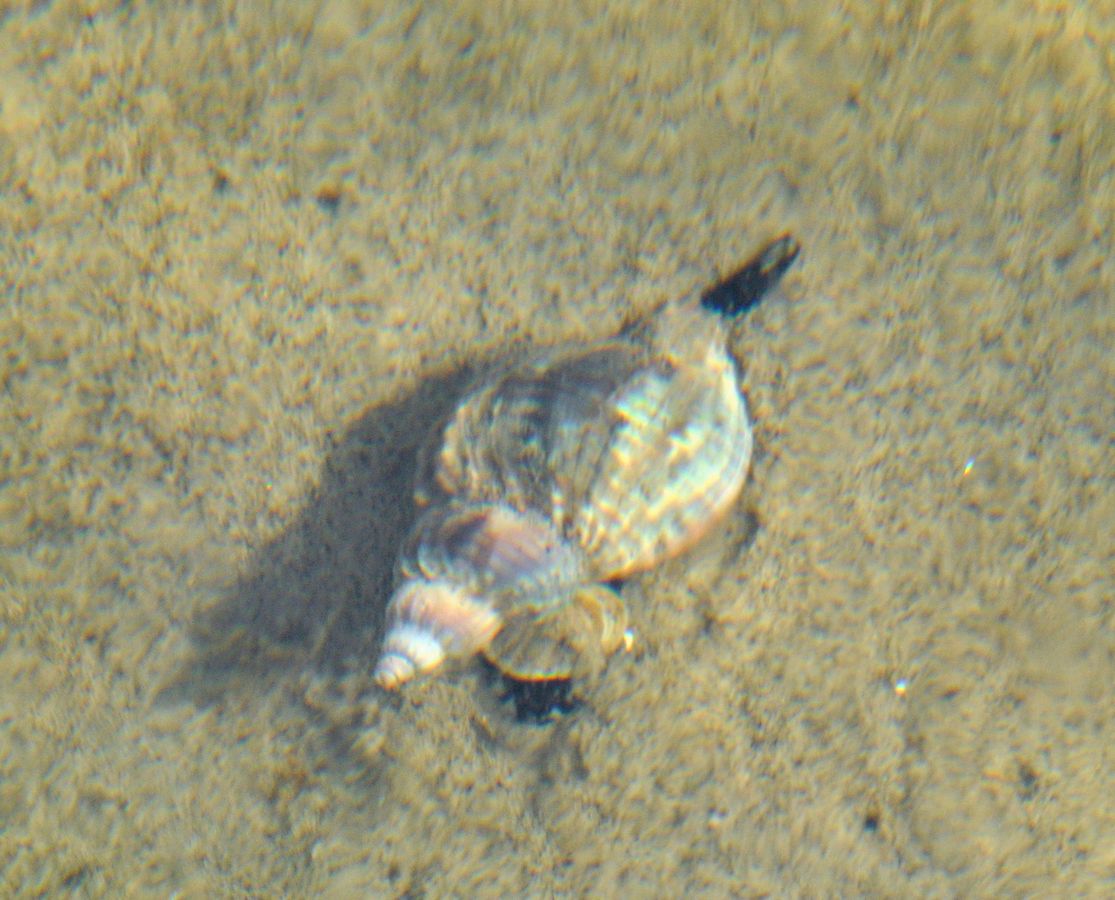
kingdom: Animalia
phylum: Mollusca
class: Gastropoda
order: Neogastropoda
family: Buccinidae
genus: Buccinum
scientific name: Buccinum undatum
